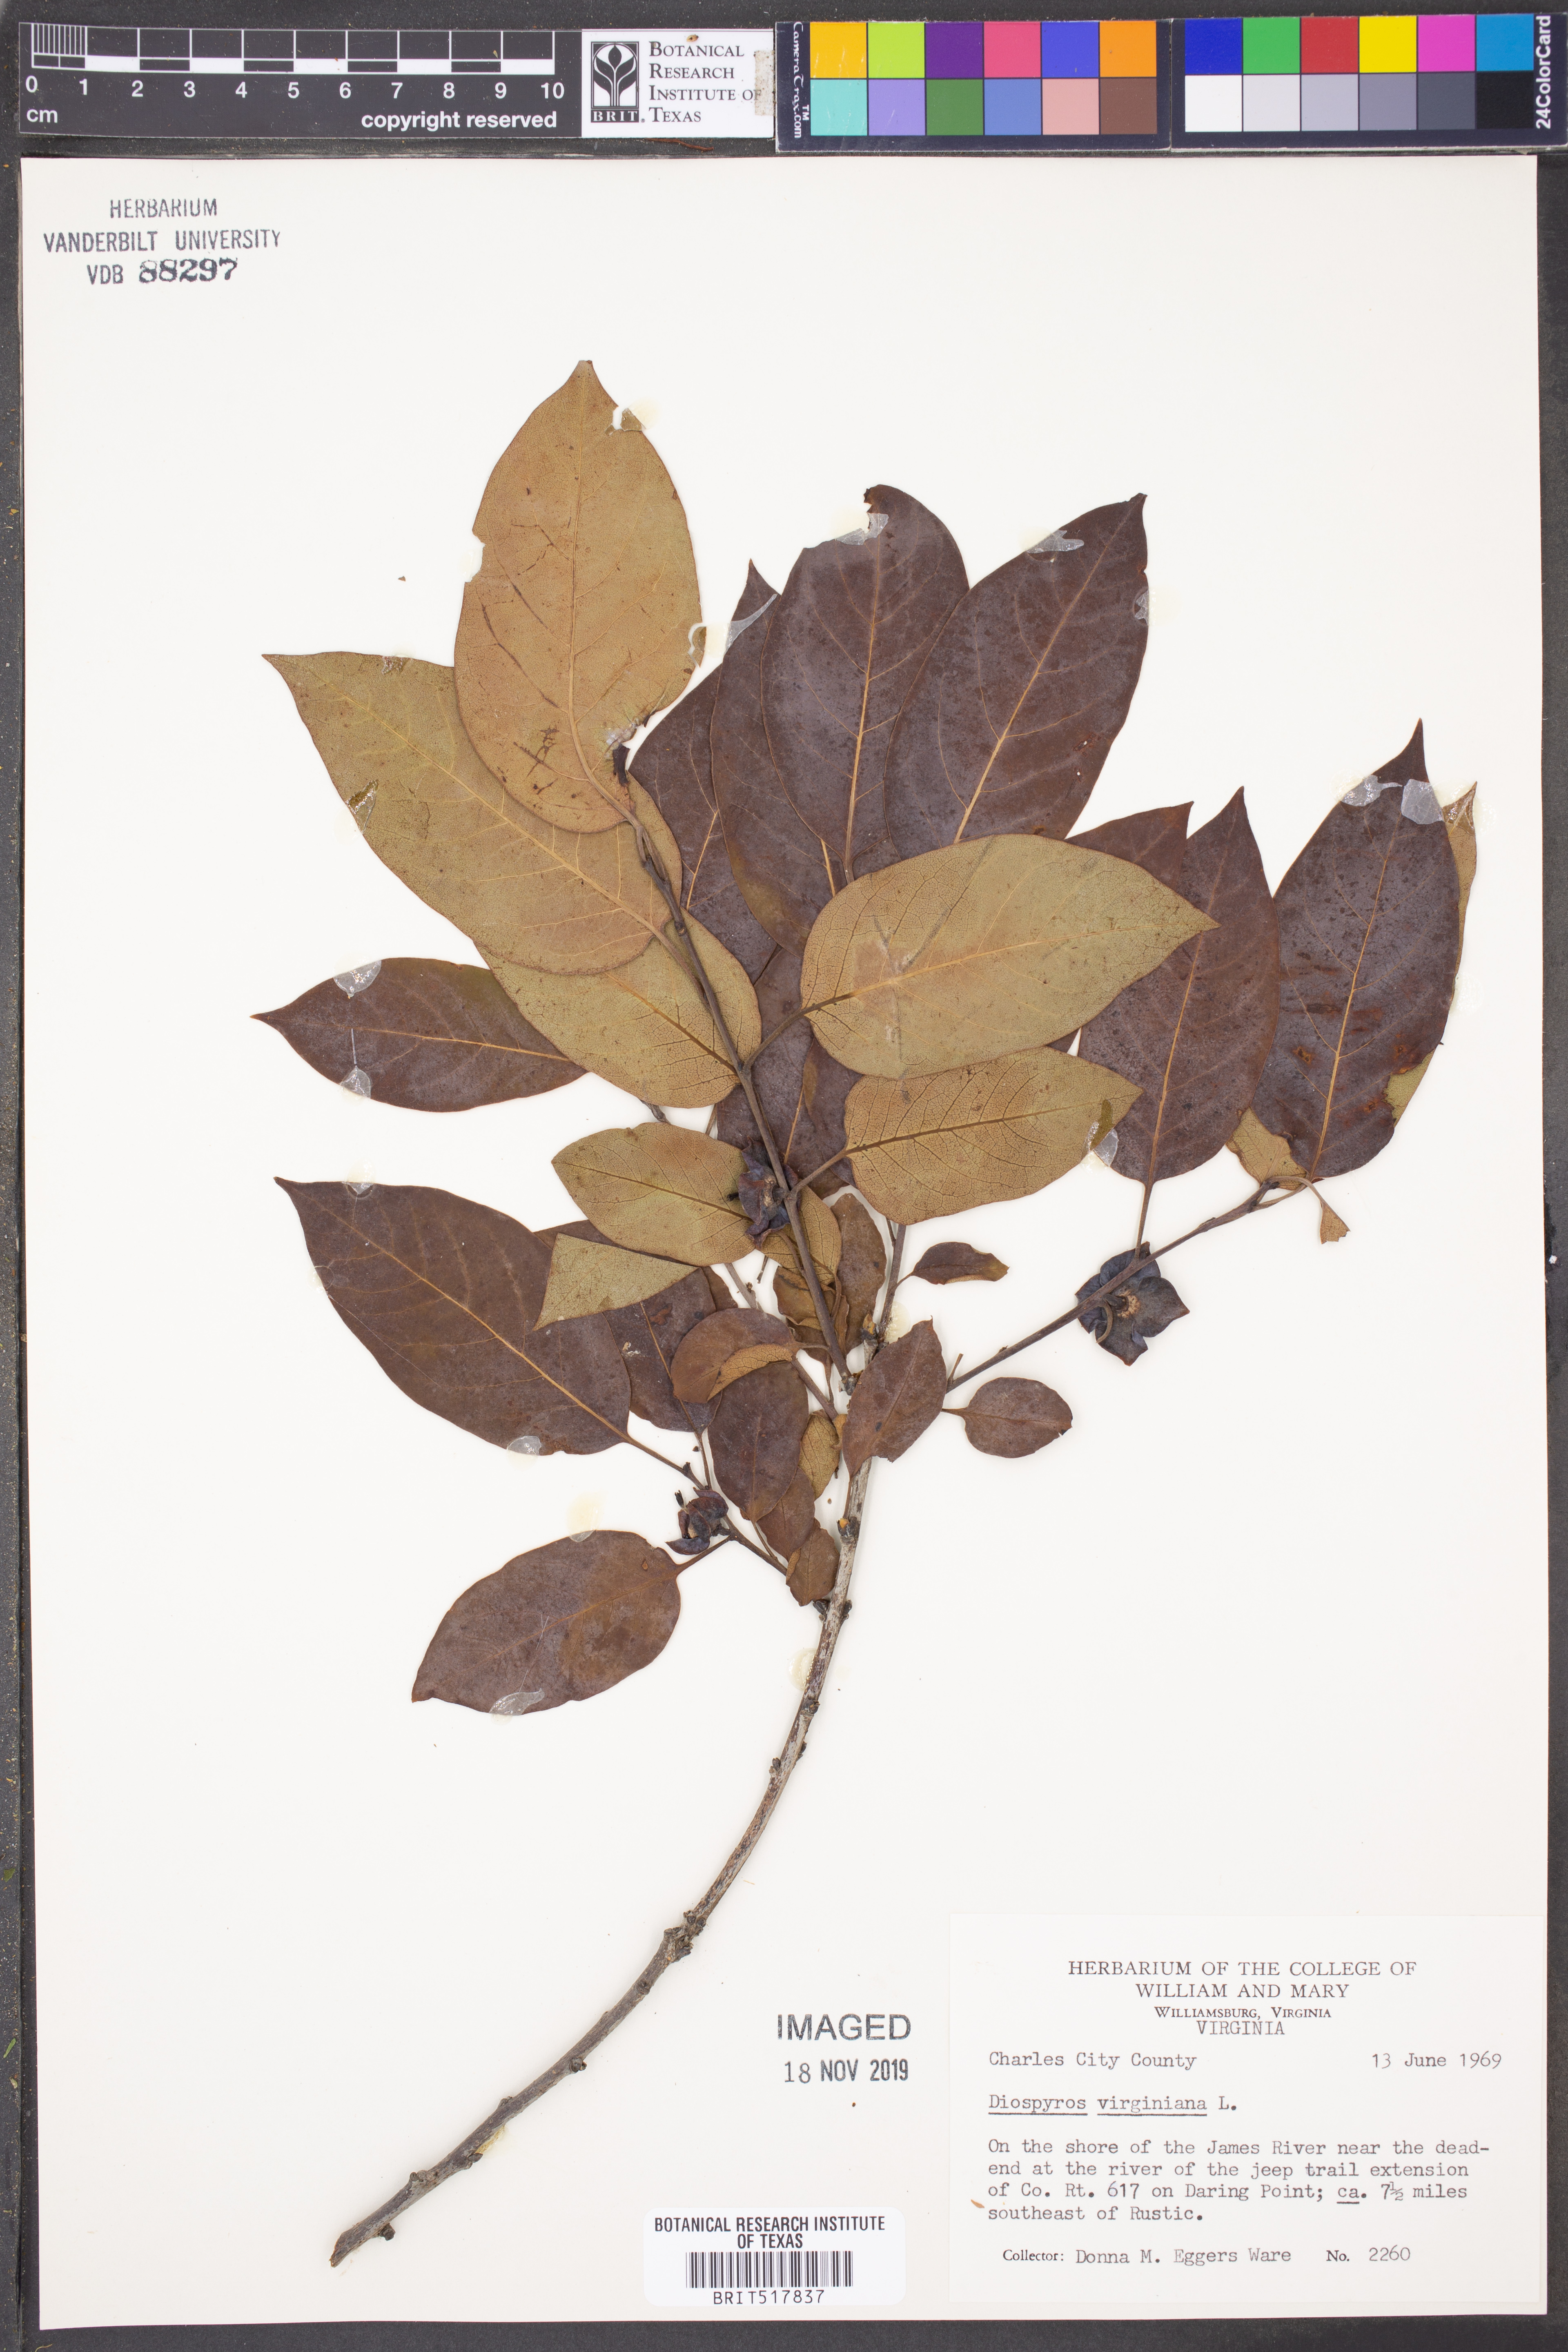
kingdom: Plantae
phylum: Tracheophyta
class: Magnoliopsida
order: Ericales
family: Ebenaceae
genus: Diospyros
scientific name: Diospyros virginiana
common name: Persimmon
